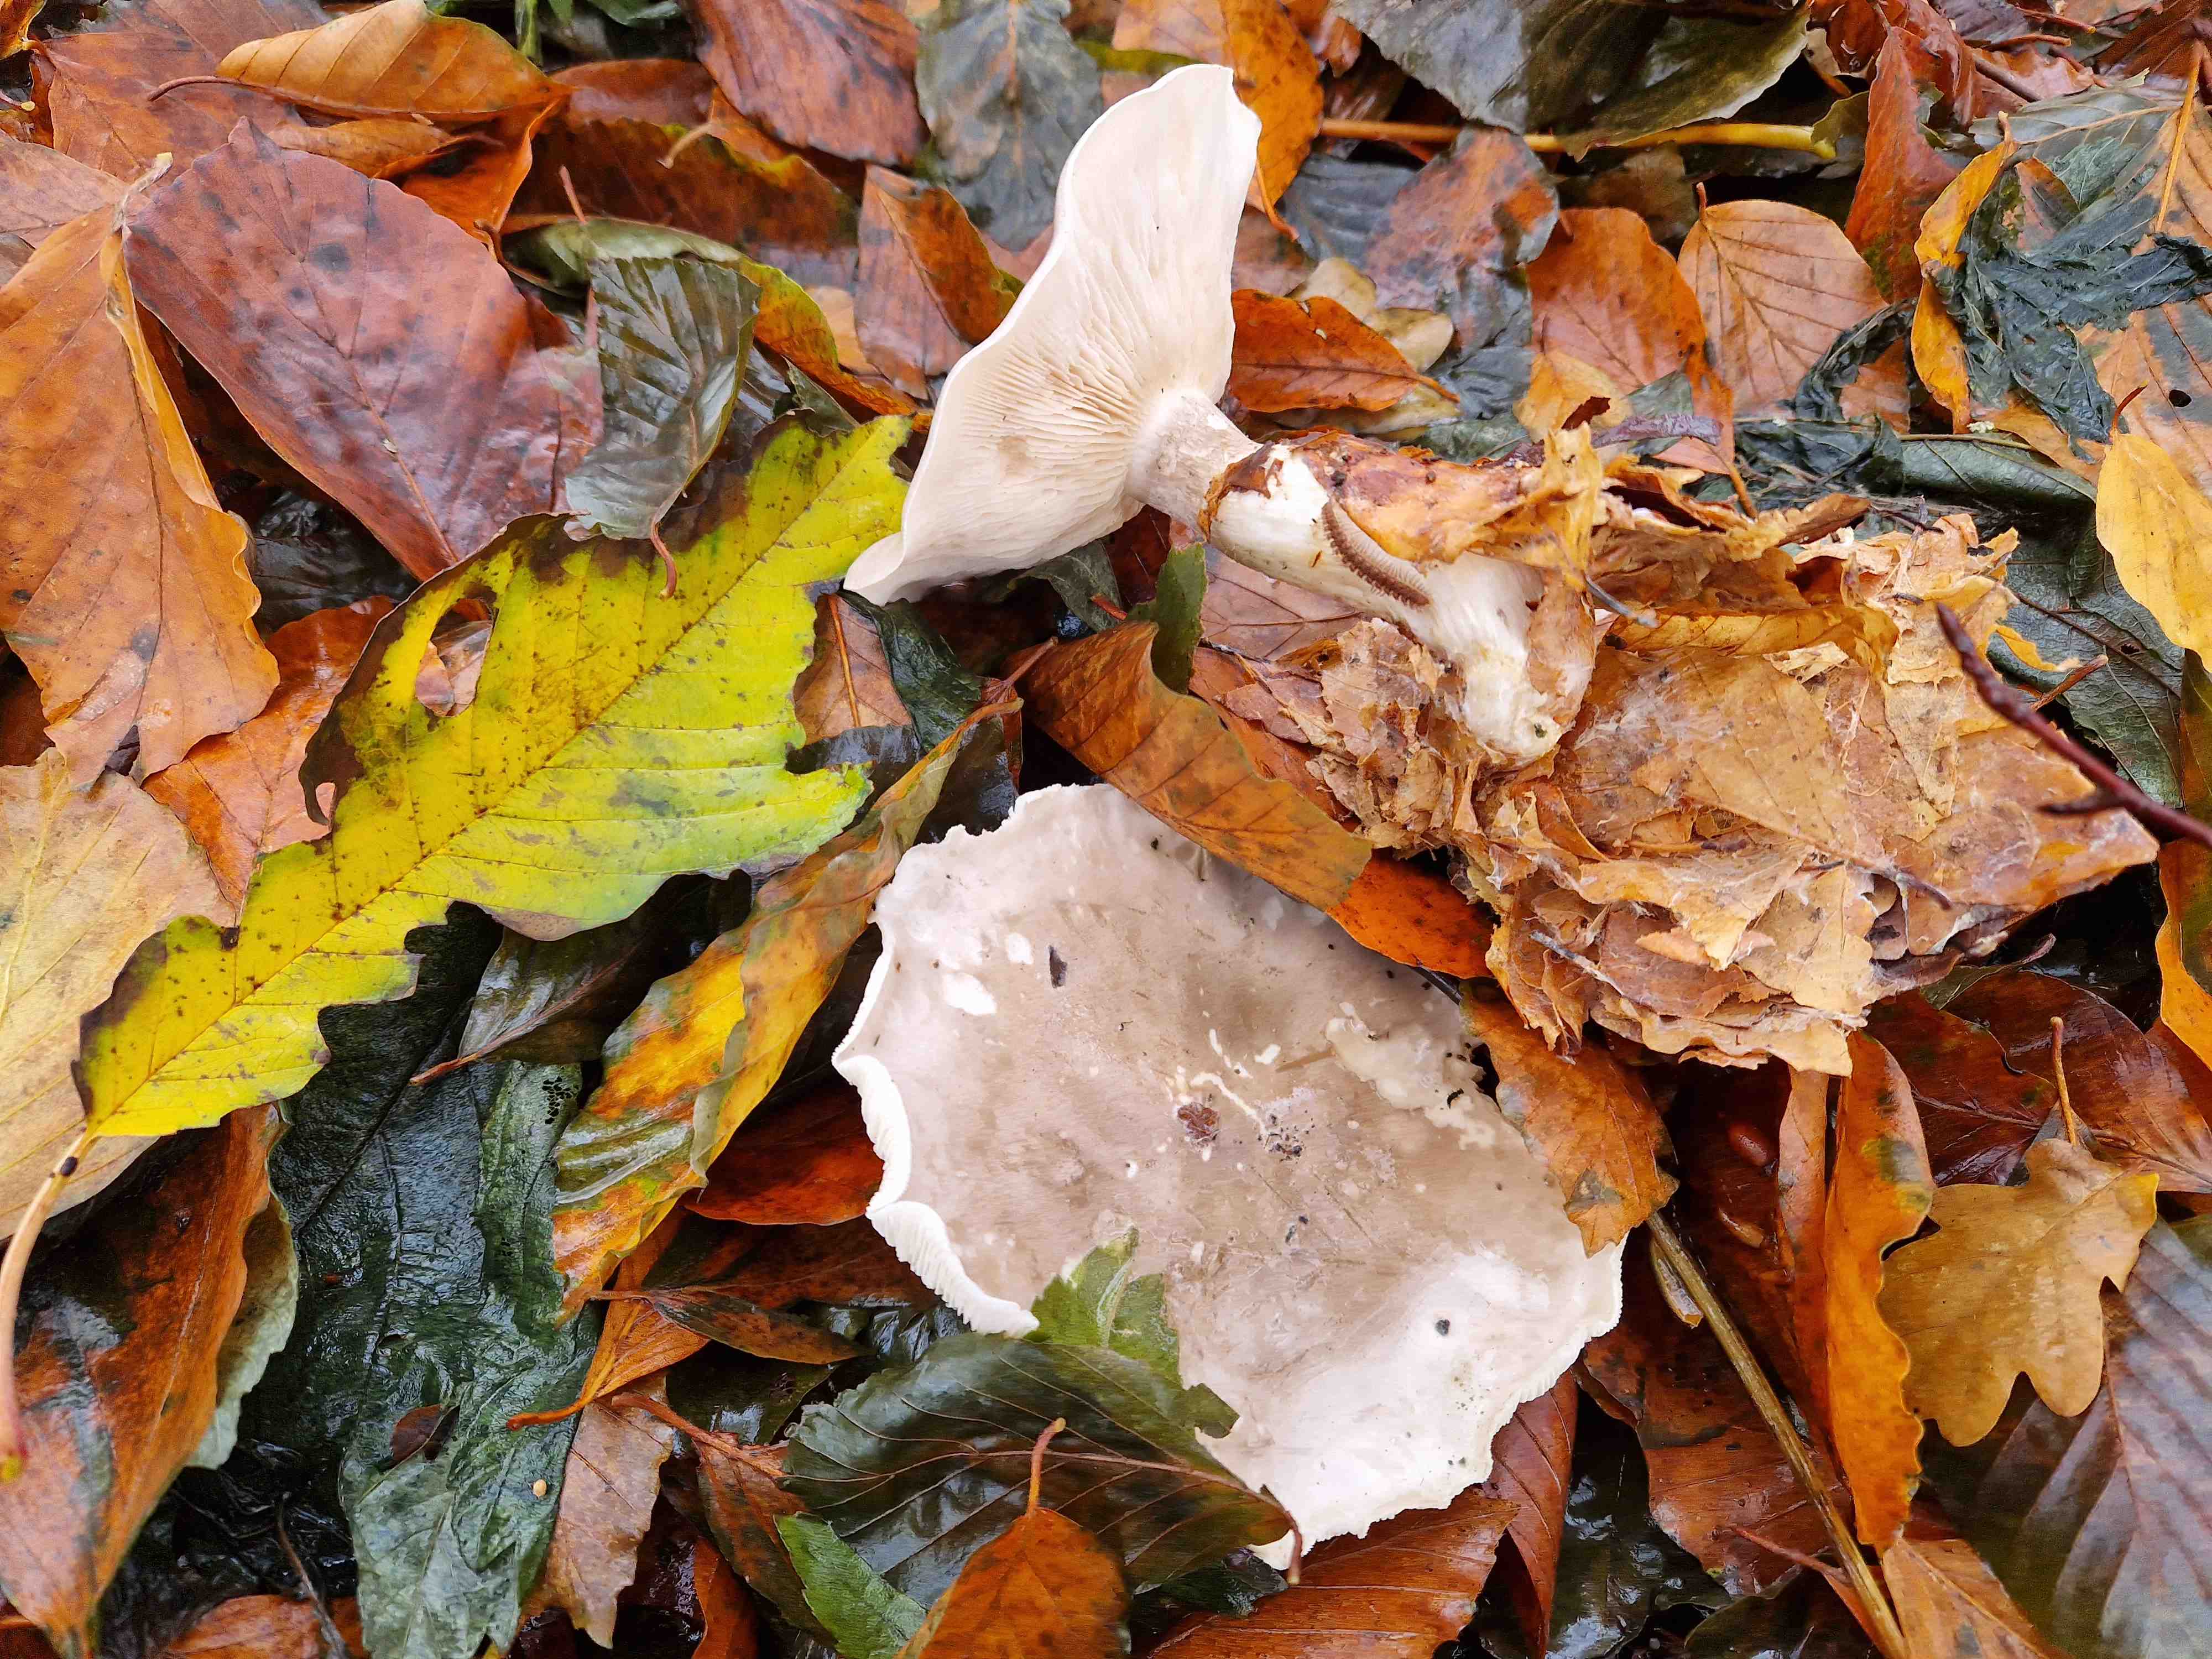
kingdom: Fungi
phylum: Basidiomycota
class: Agaricomycetes
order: Agaricales
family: Tricholomataceae
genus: Clitocybe
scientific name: Clitocybe nebularis
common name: tåge-tragthat
